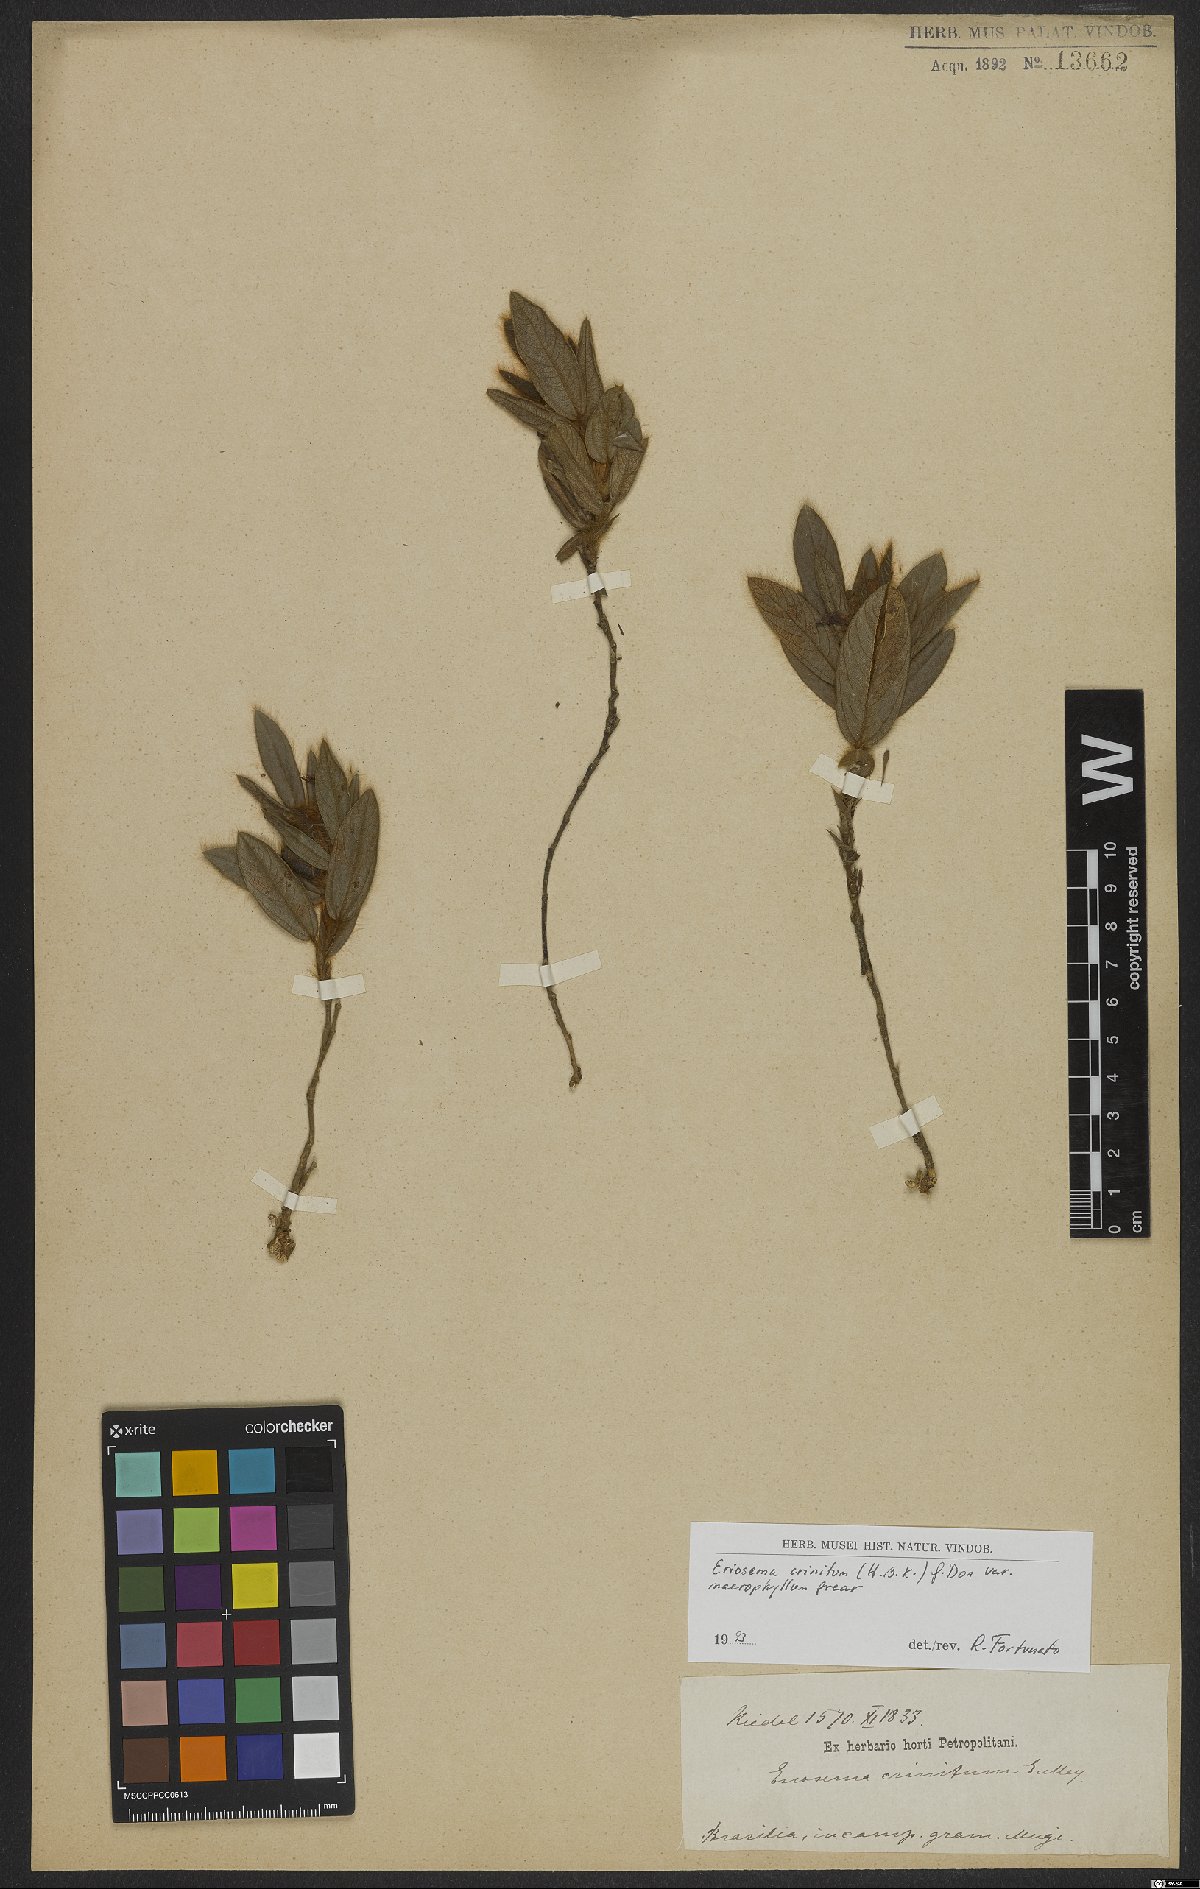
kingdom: Plantae
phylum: Tracheophyta
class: Magnoliopsida
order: Fabales
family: Fabaceae
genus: Eriosema
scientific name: Eriosema campestre
